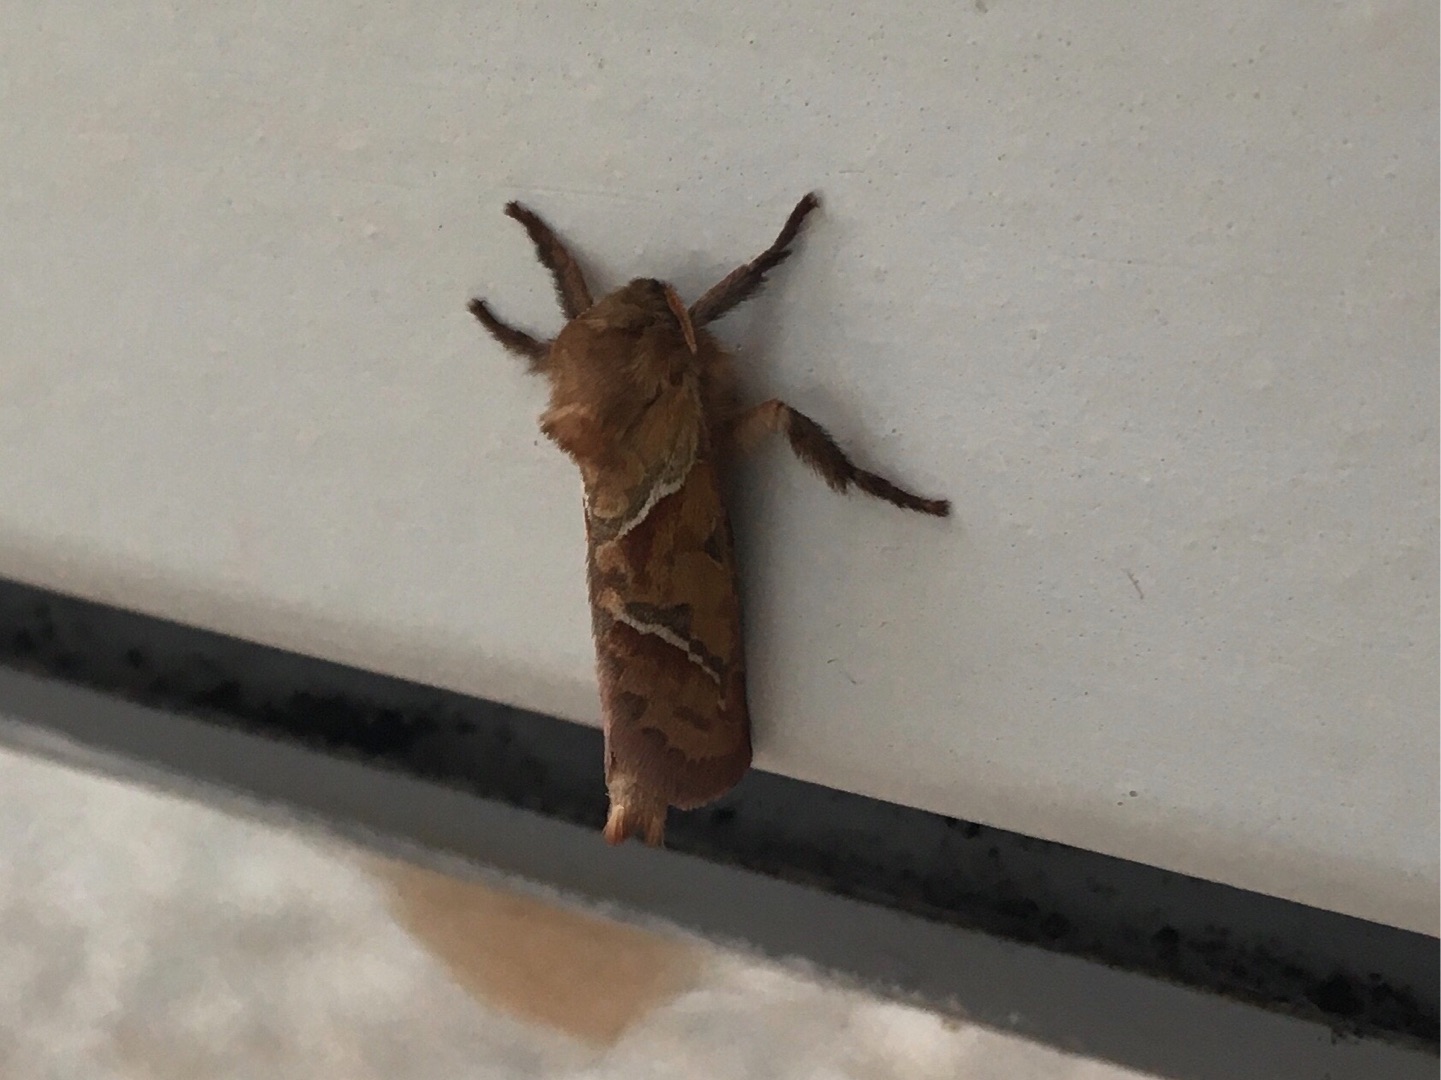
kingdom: Animalia
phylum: Arthropoda
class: Insecta
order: Lepidoptera
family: Hepialidae
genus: Triodia
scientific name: Triodia sylvina
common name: Skræpperodæder
